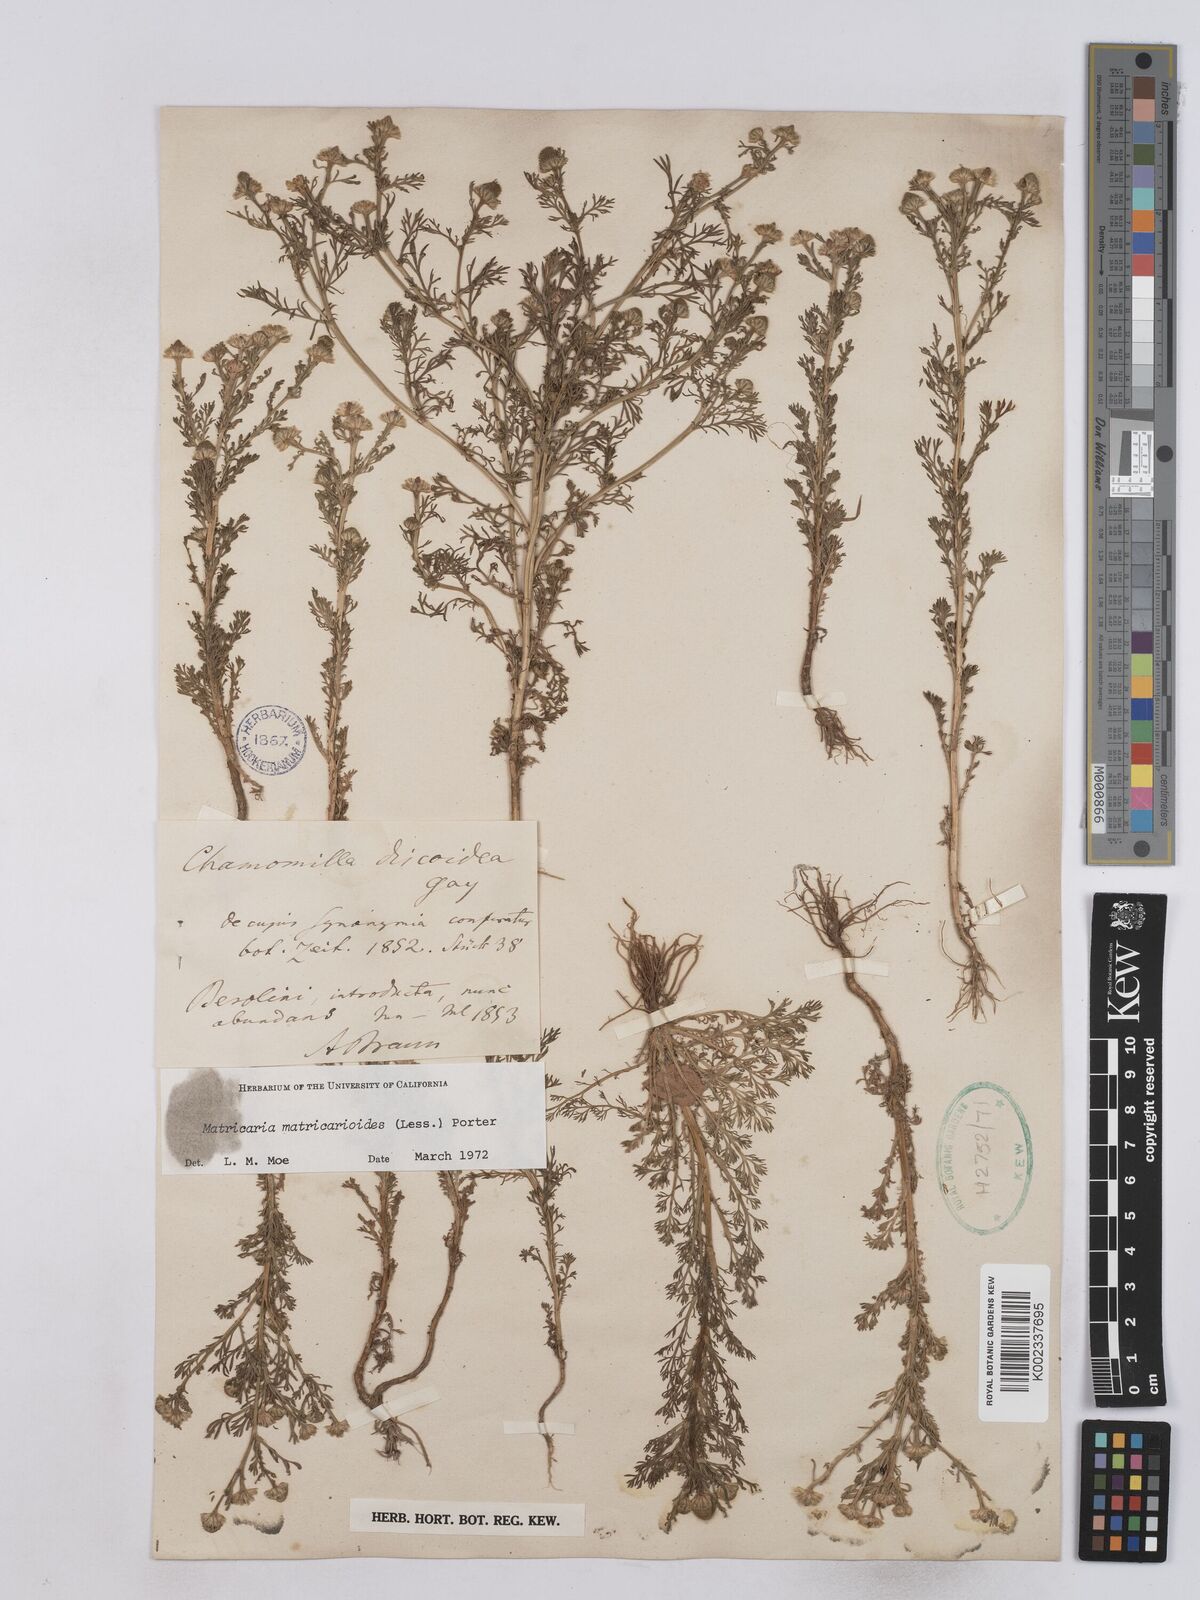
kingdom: Plantae
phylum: Tracheophyta
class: Magnoliopsida
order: Asterales
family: Asteraceae
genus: Matricaria
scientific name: Matricaria discoidea
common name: Disc mayweed
